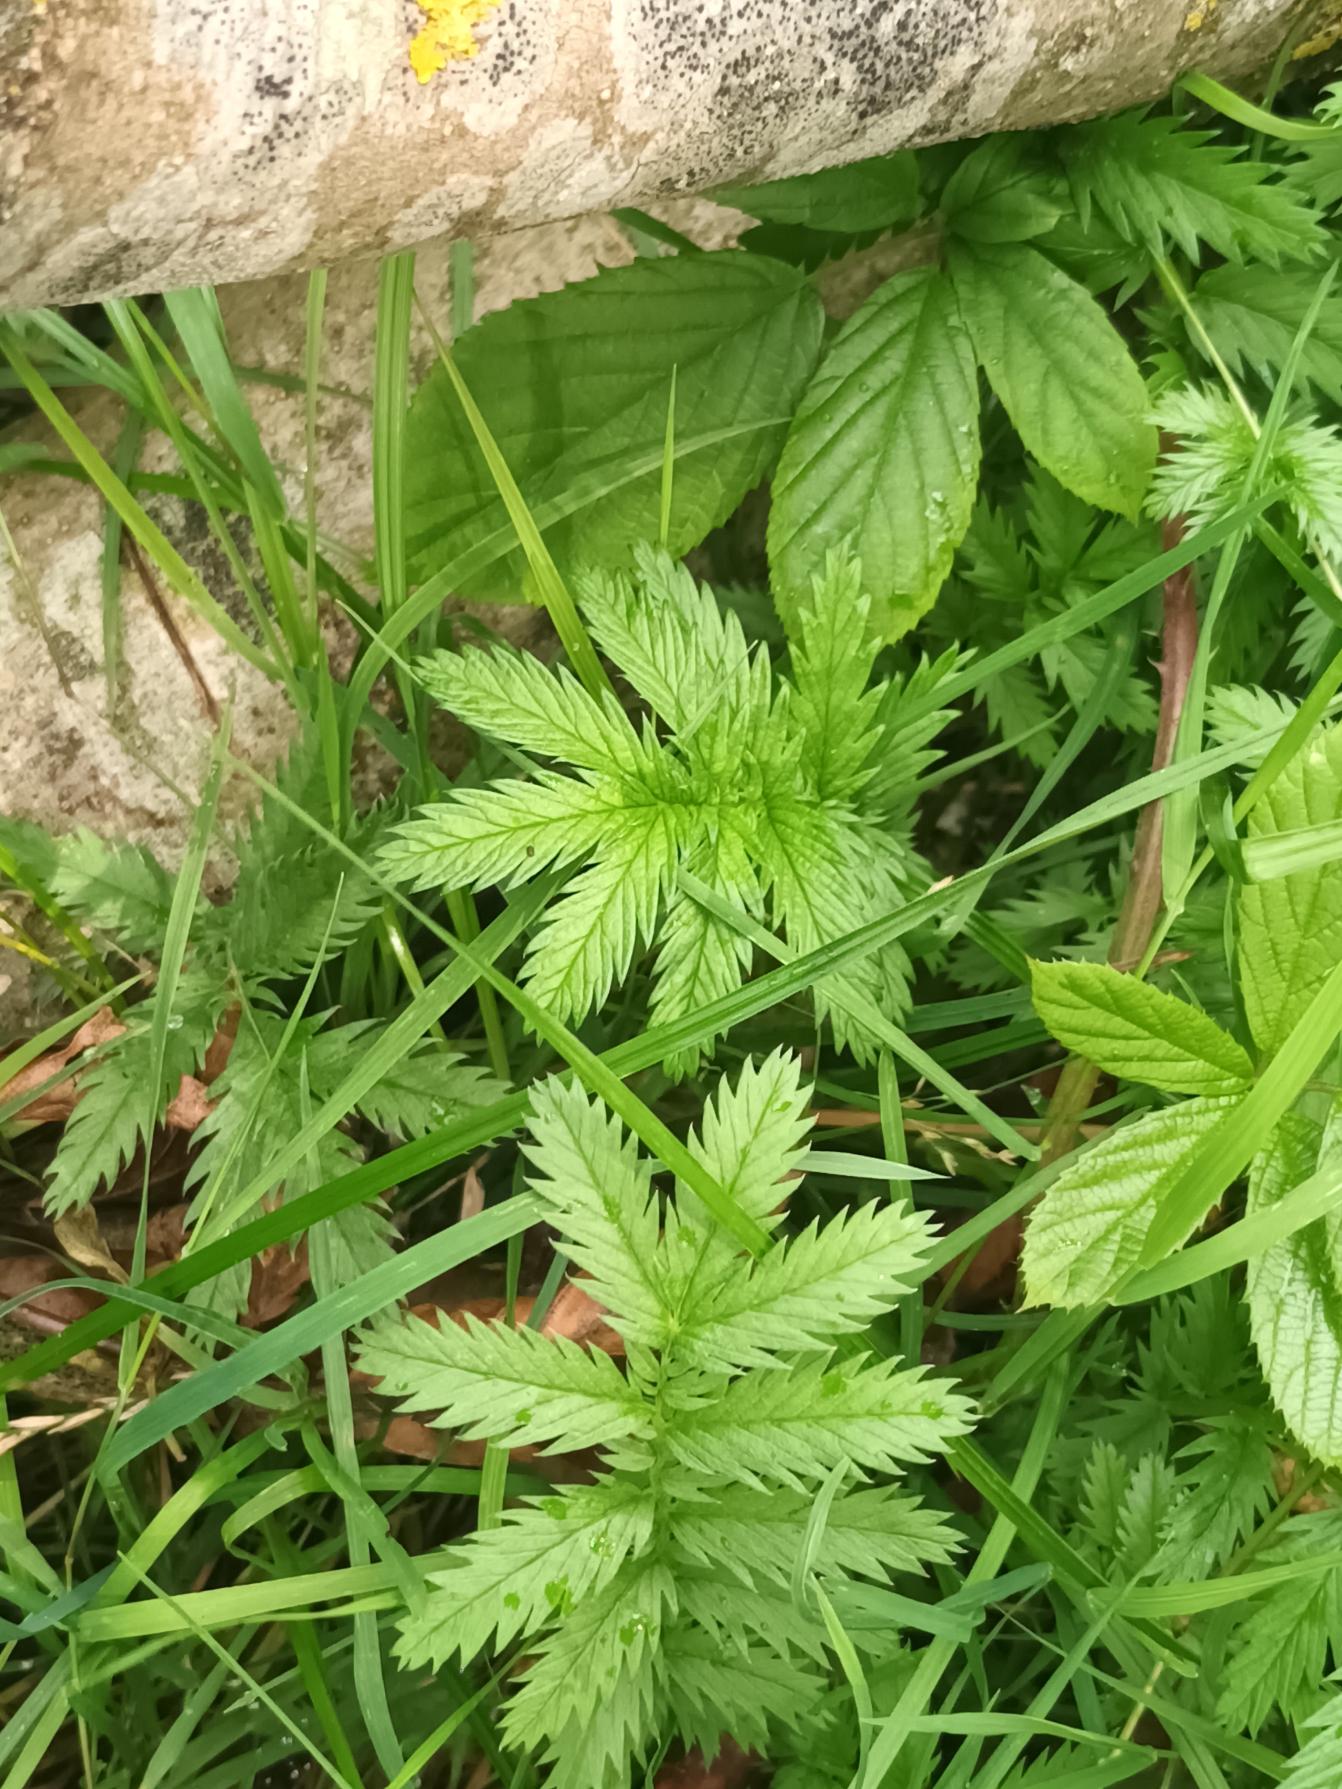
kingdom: Plantae
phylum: Tracheophyta
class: Magnoliopsida
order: Rosales
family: Rosaceae
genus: Argentina
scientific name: Argentina anserina
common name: Gåsepotentil
